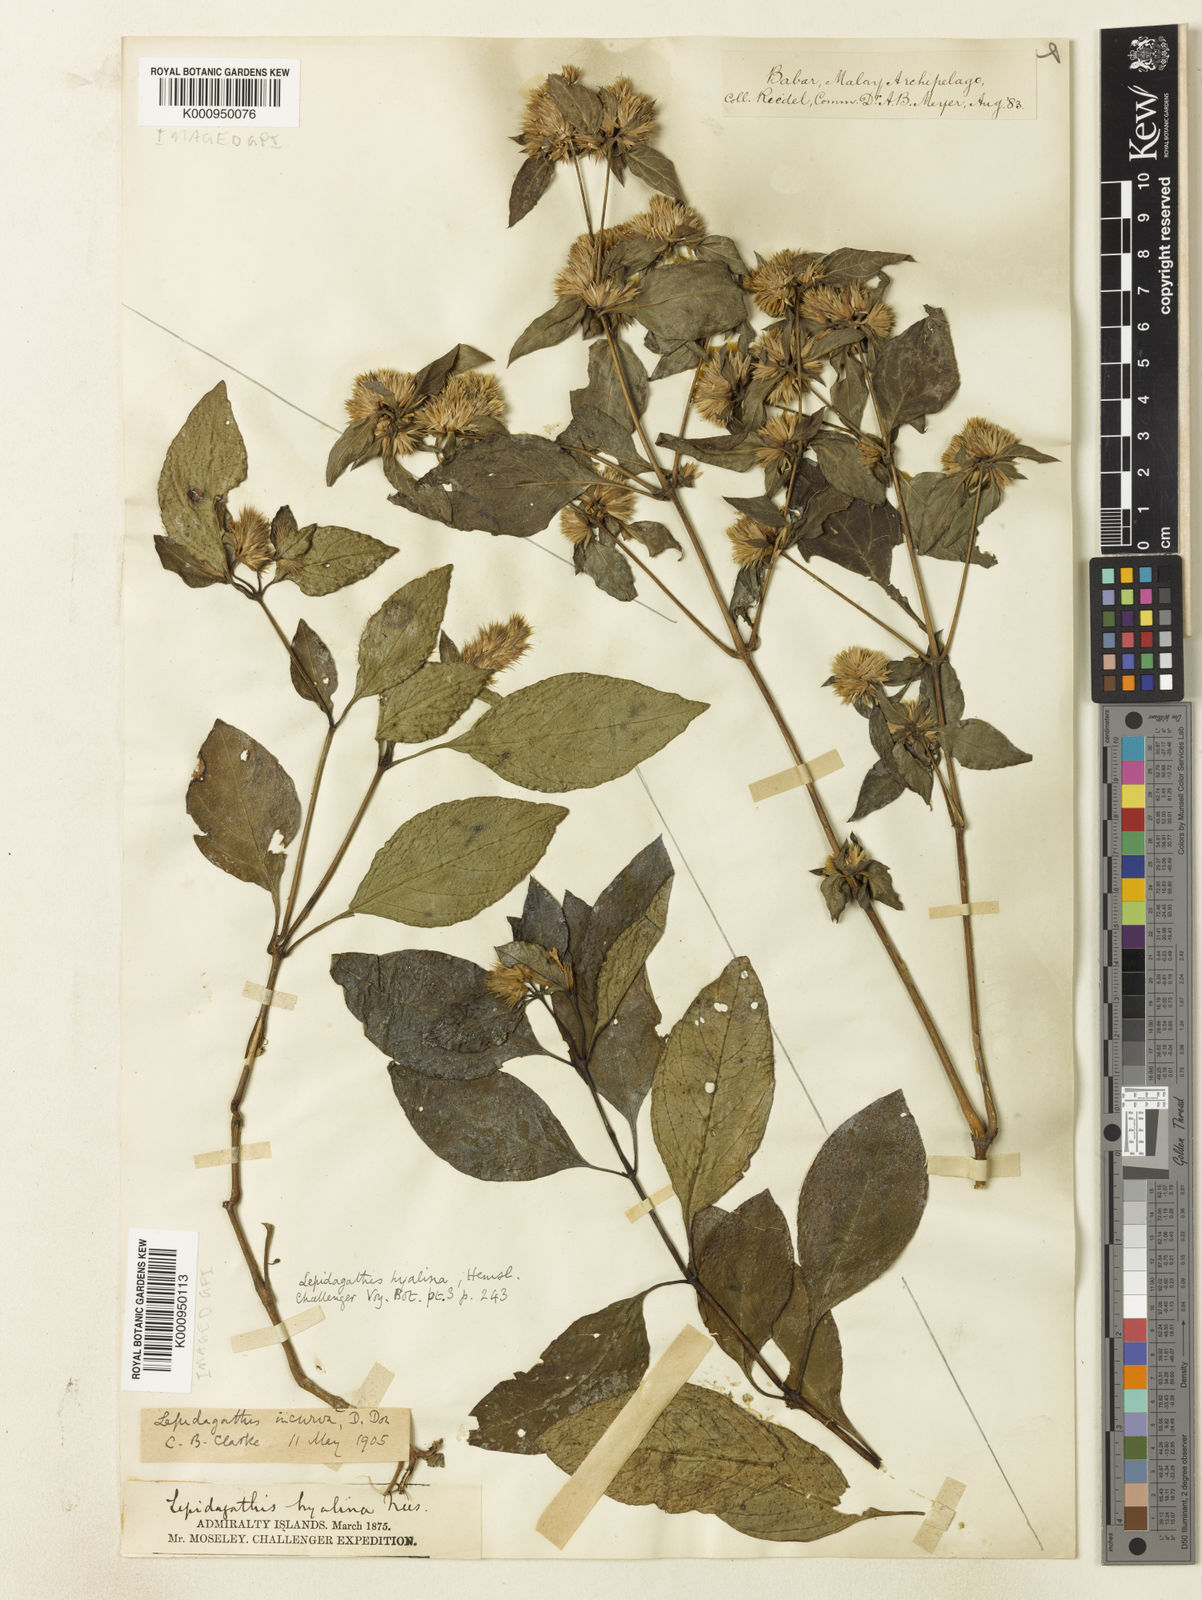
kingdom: Plantae
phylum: Tracheophyta
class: Magnoliopsida
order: Lamiales
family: Acanthaceae
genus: Lepidagathis
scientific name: Lepidagathis incurva
